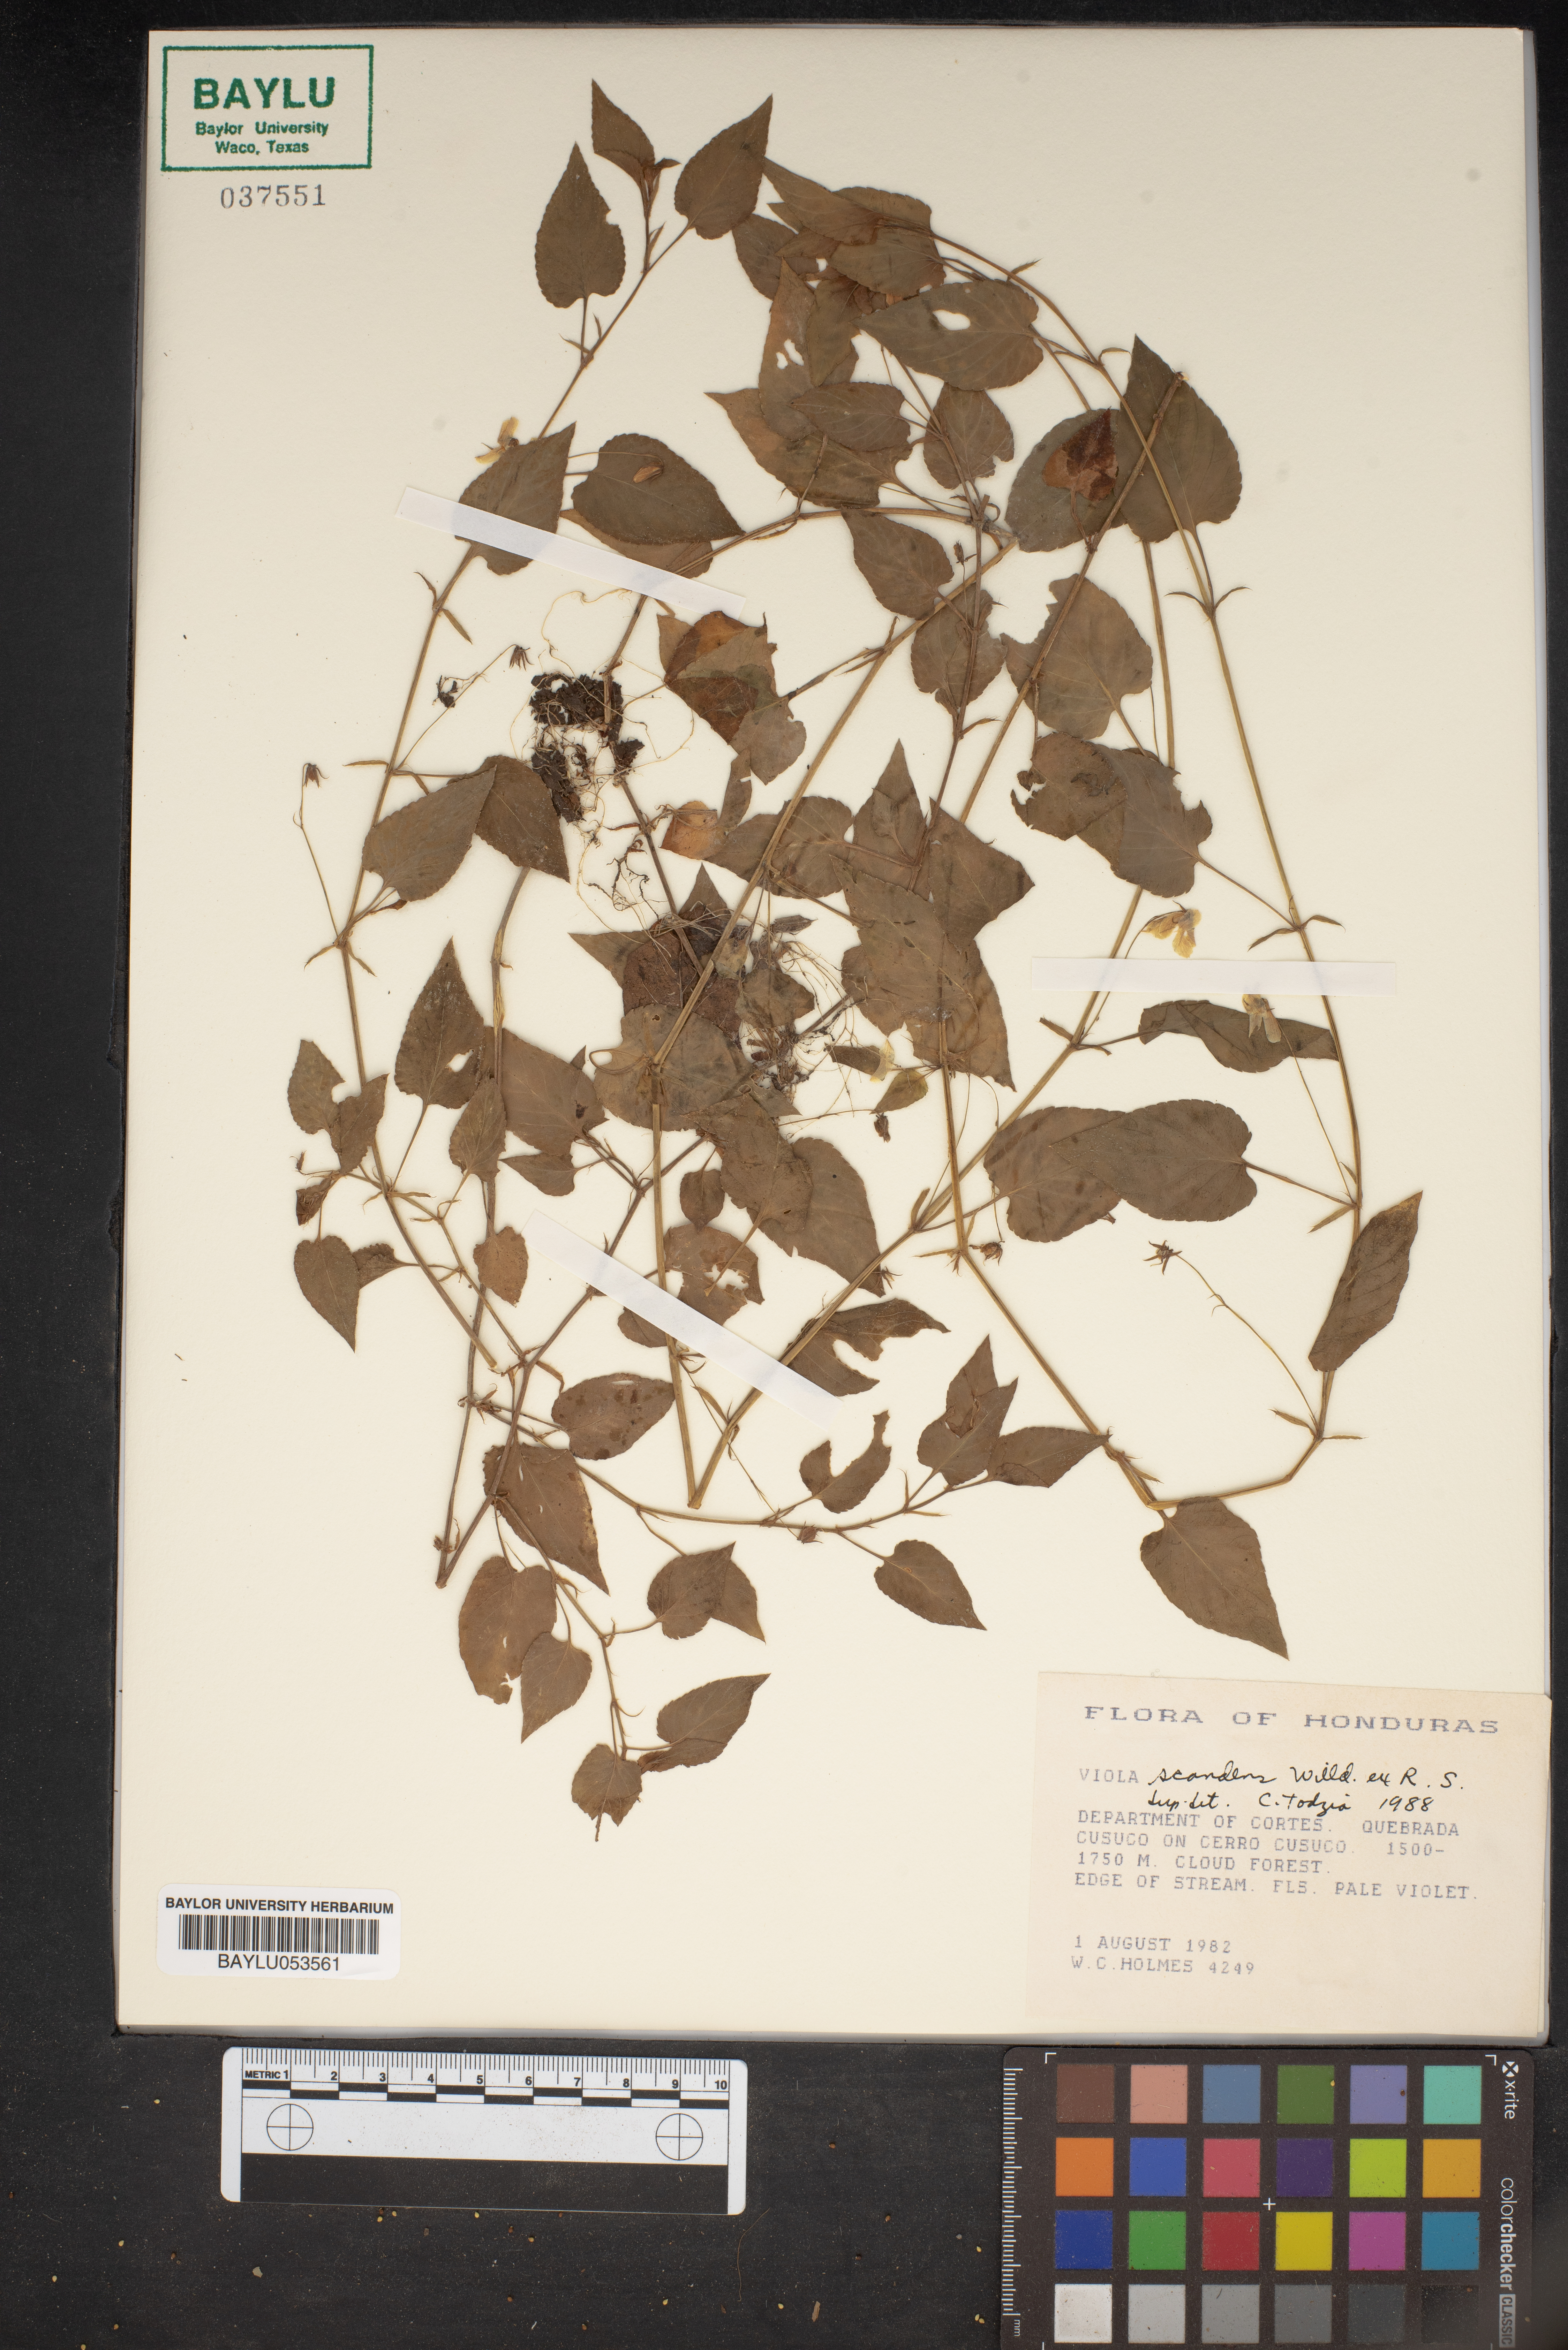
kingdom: Plantae
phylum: Tracheophyta
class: Magnoliopsida
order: Malpighiales
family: Violaceae
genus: Viola
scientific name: Viola scandens
